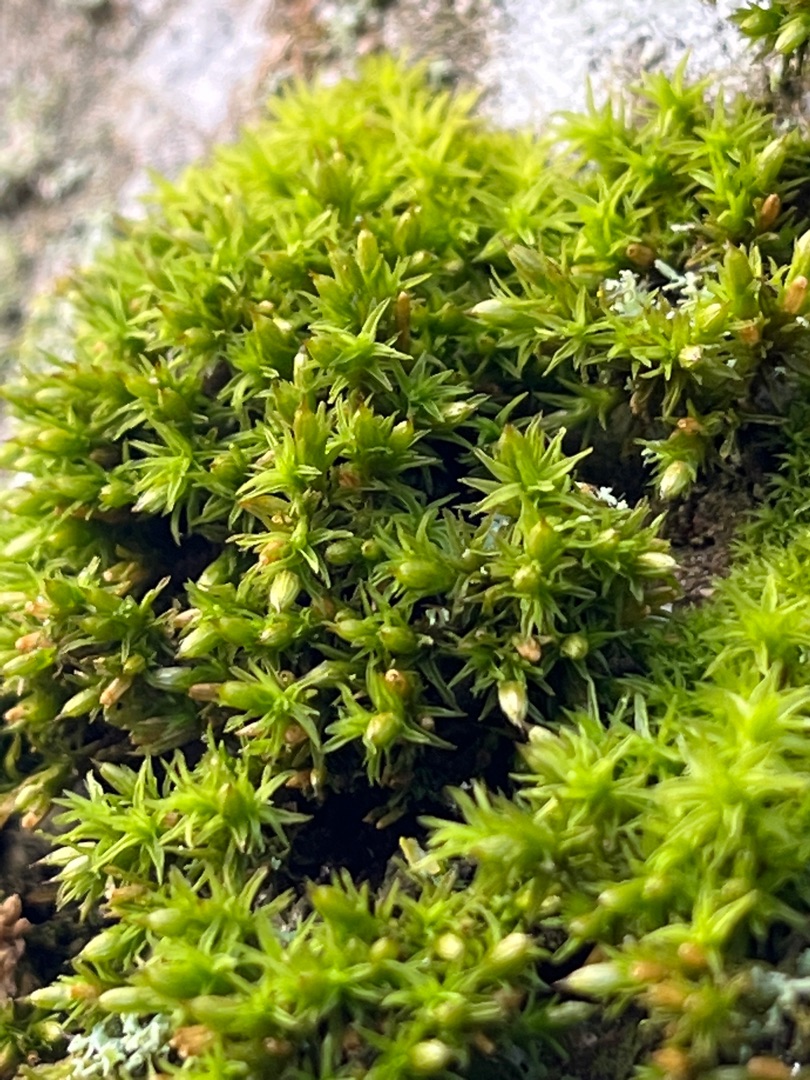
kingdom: Plantae
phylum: Bryophyta
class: Bryopsida
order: Orthotrichales
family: Orthotrichaceae
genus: Orthotrichum
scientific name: Orthotrichum
